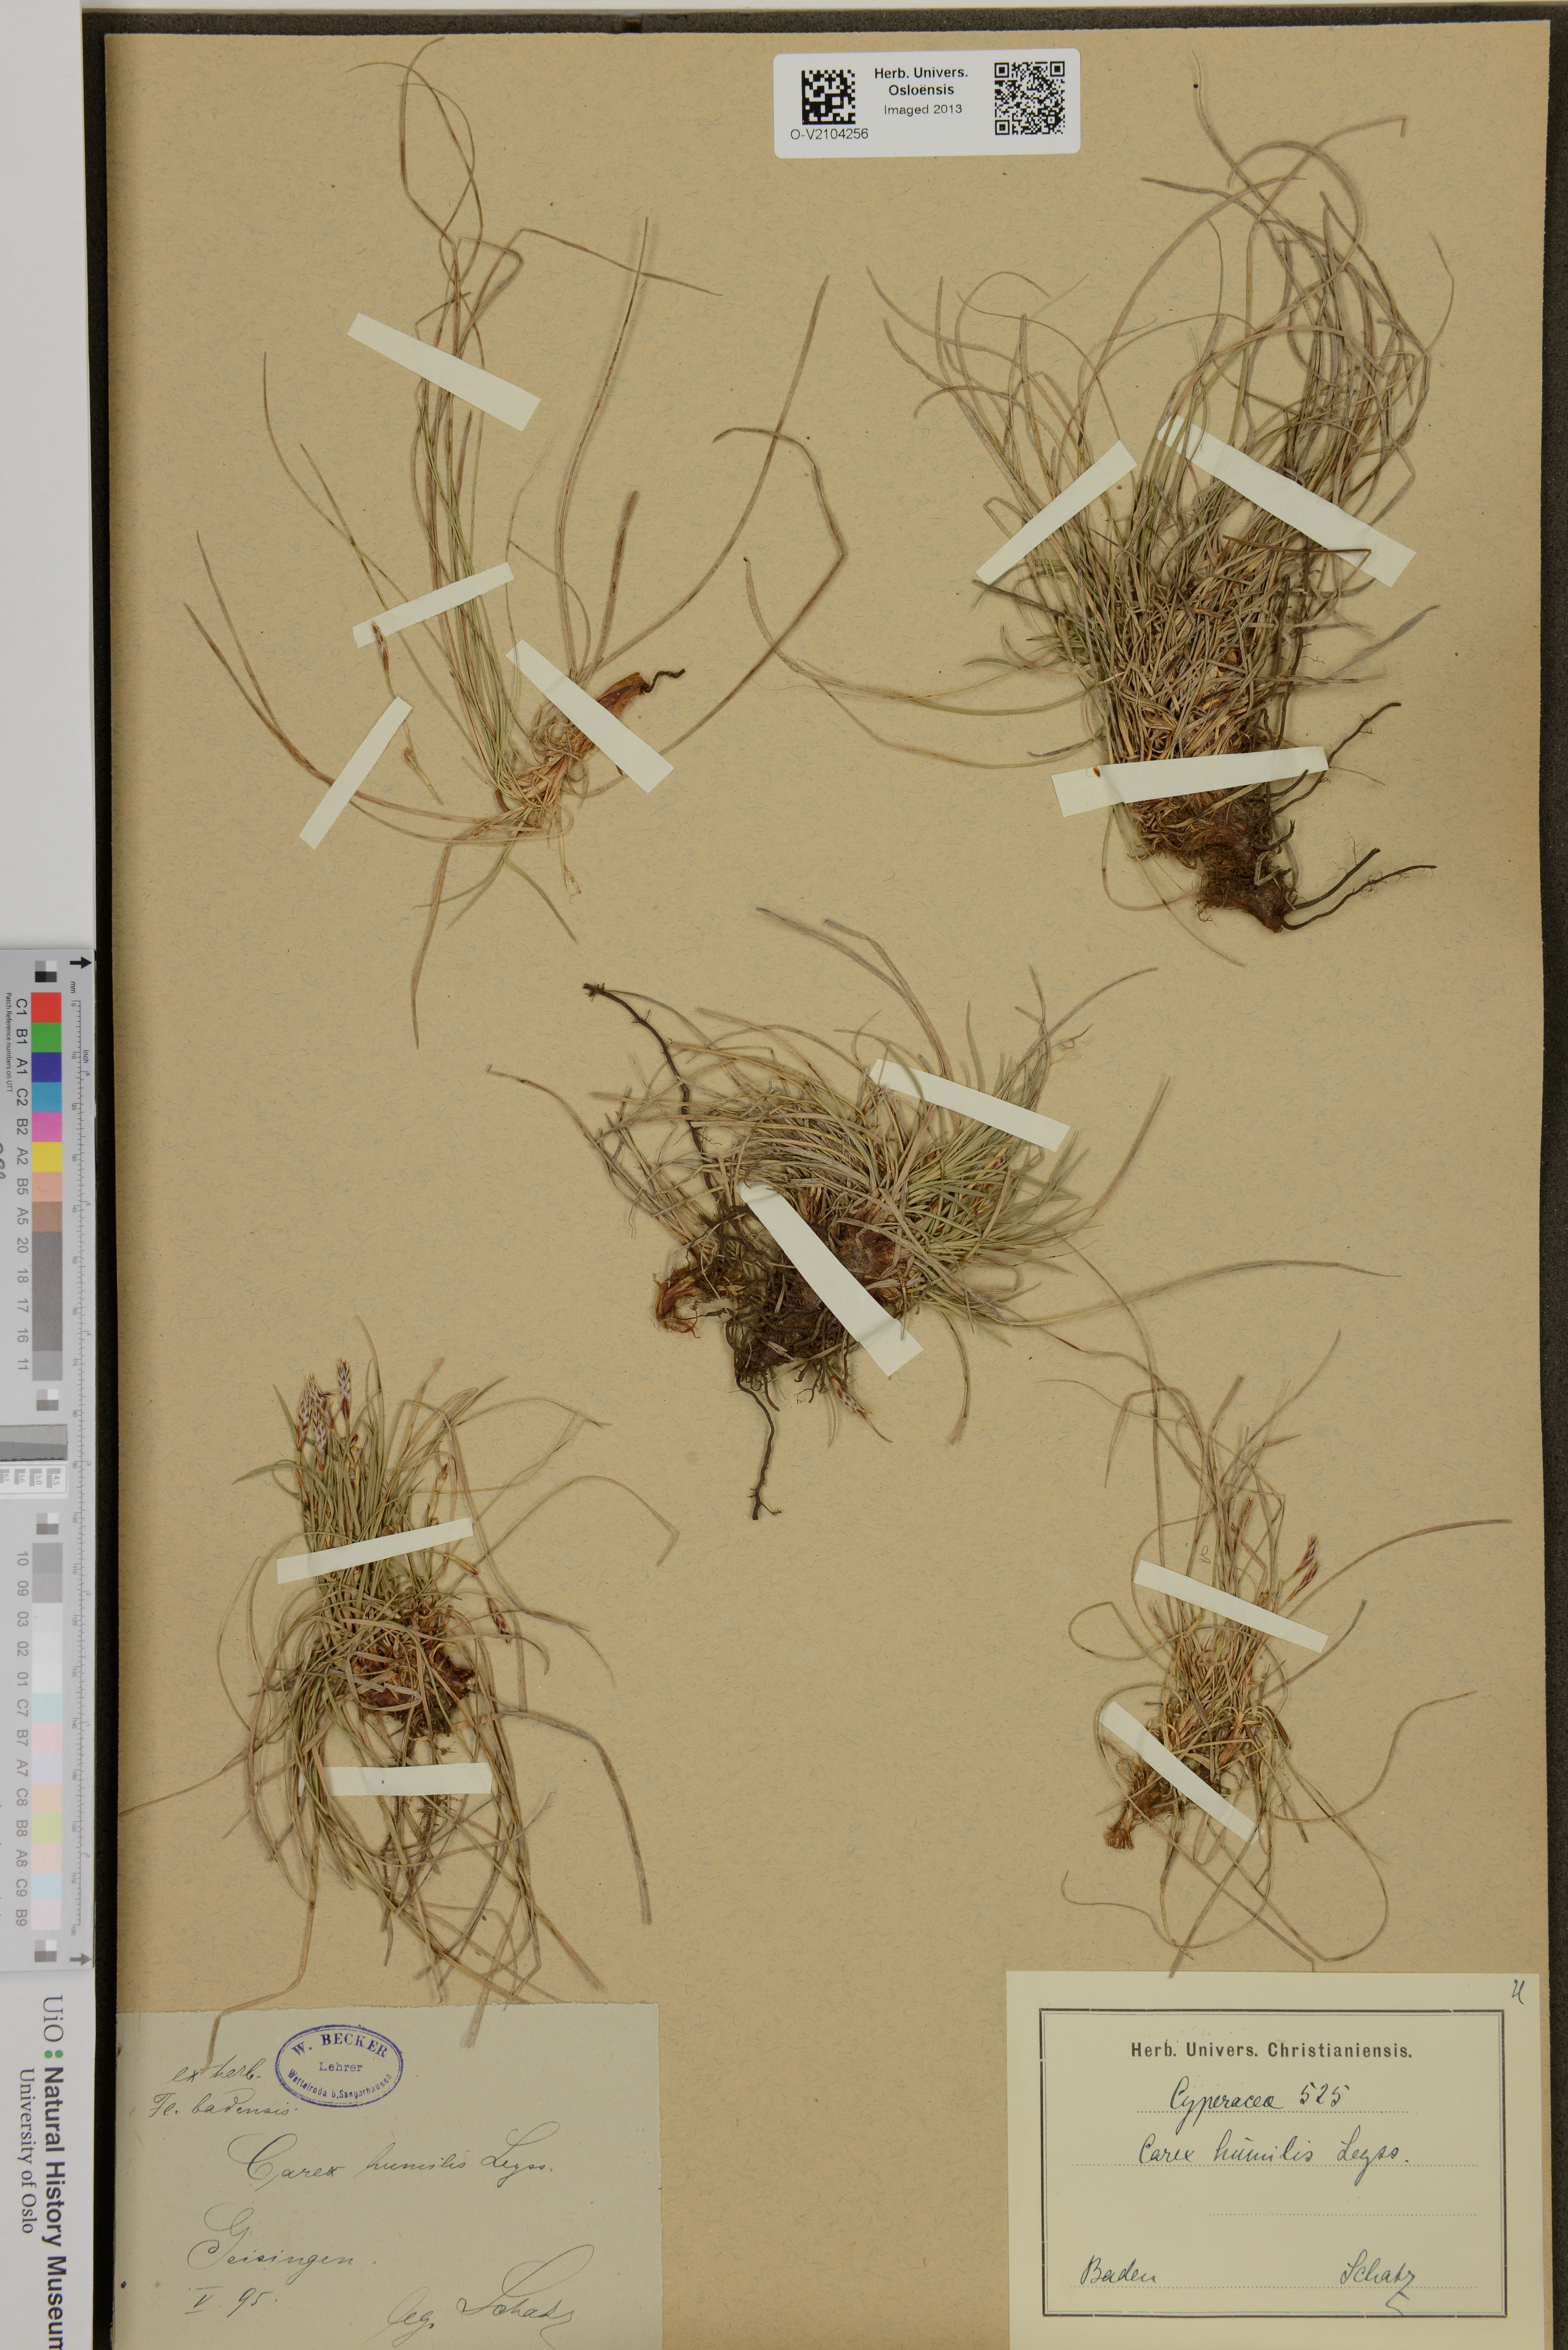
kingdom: Plantae
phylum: Tracheophyta
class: Liliopsida
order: Poales
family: Cyperaceae
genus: Carex
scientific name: Carex humilis
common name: Dwarf sedge
